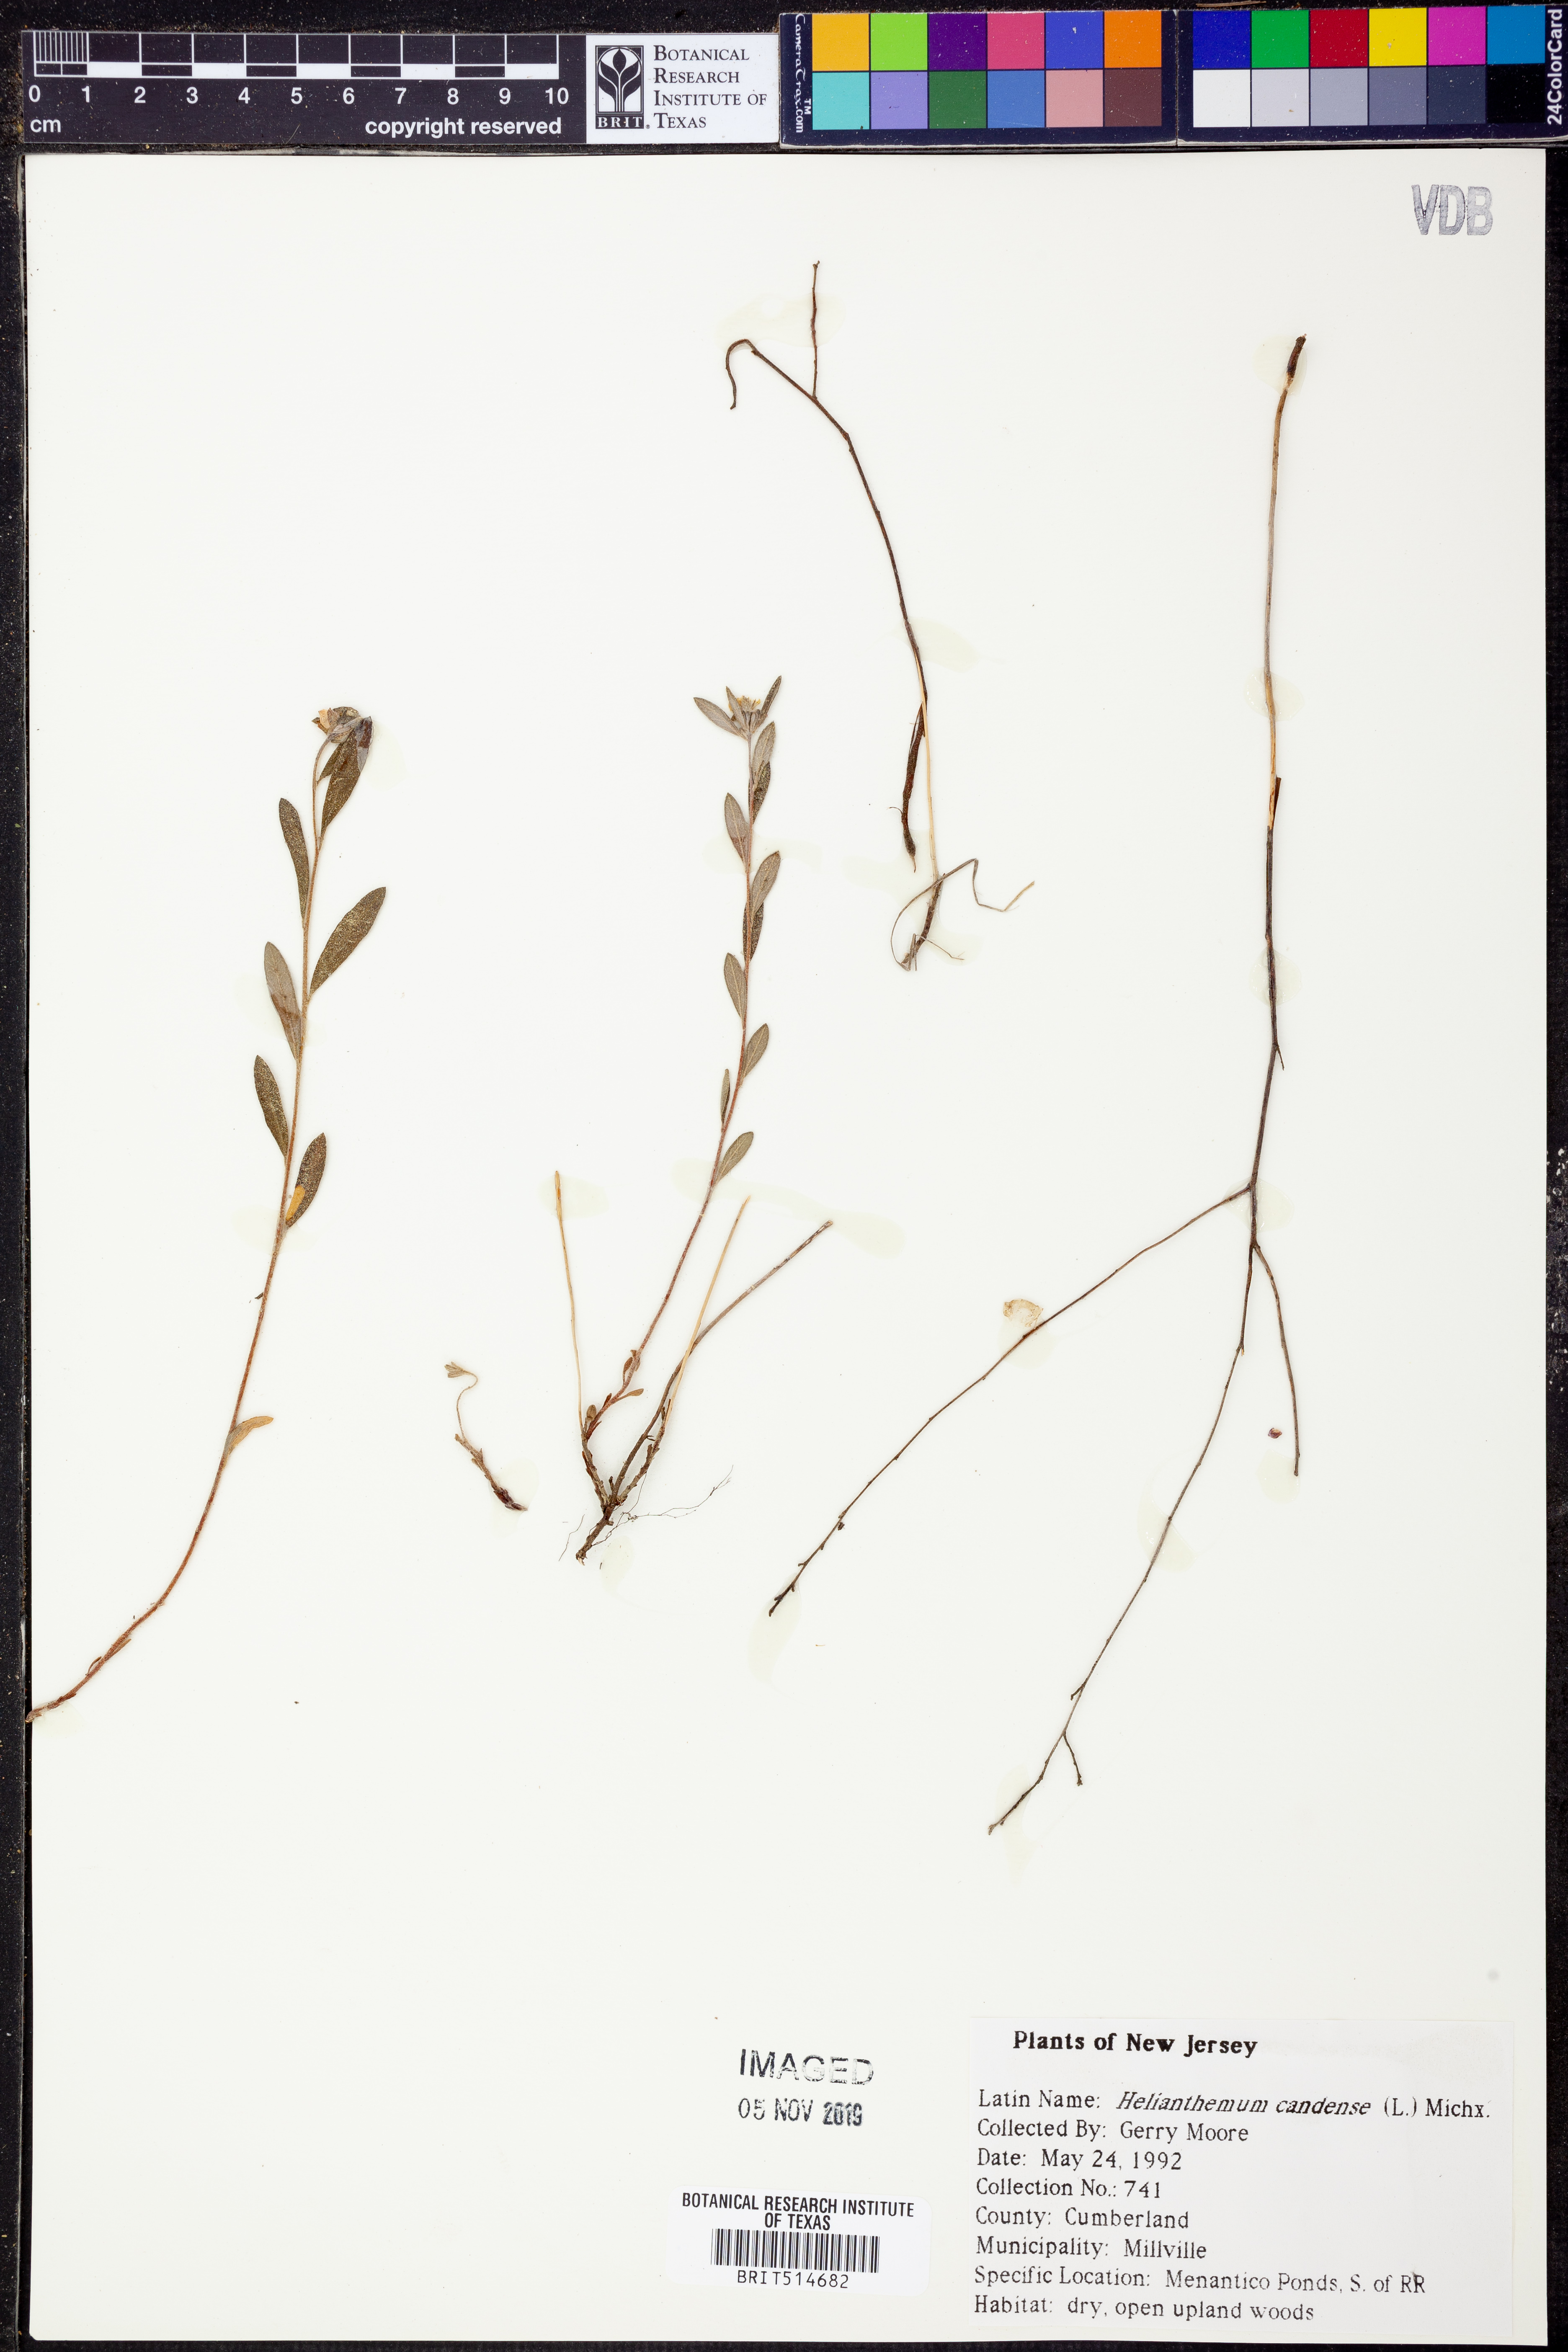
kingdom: Plantae
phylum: Tracheophyta
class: Magnoliopsida
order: Malvales
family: Cistaceae
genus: Crocanthemum
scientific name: Crocanthemum canadense
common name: Canada frostweed
